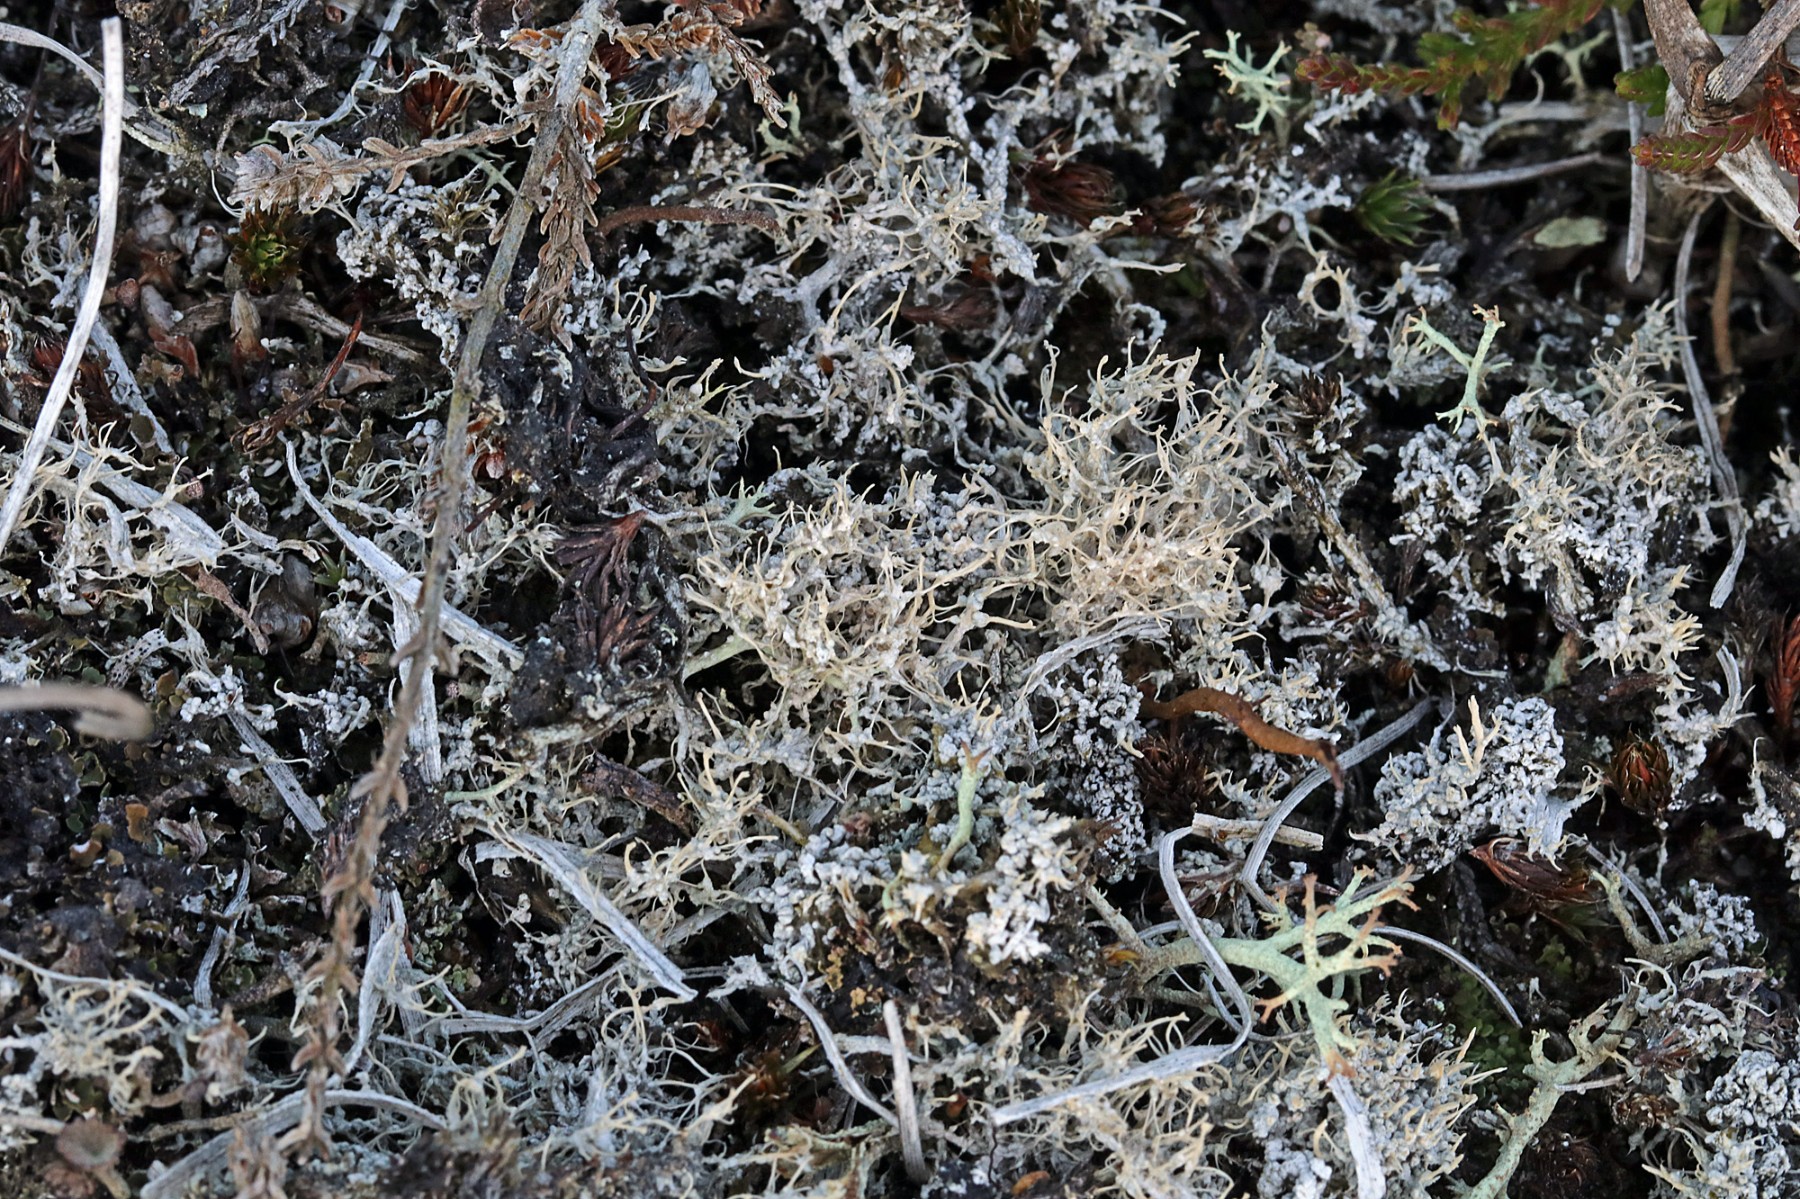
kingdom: Fungi
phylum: Ascomycota
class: Lecanoromycetes
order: Pertusariales
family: Ochrolechiaceae
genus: Ochrolechia
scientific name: Ochrolechia frigida
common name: fjeld-blegskivelav
